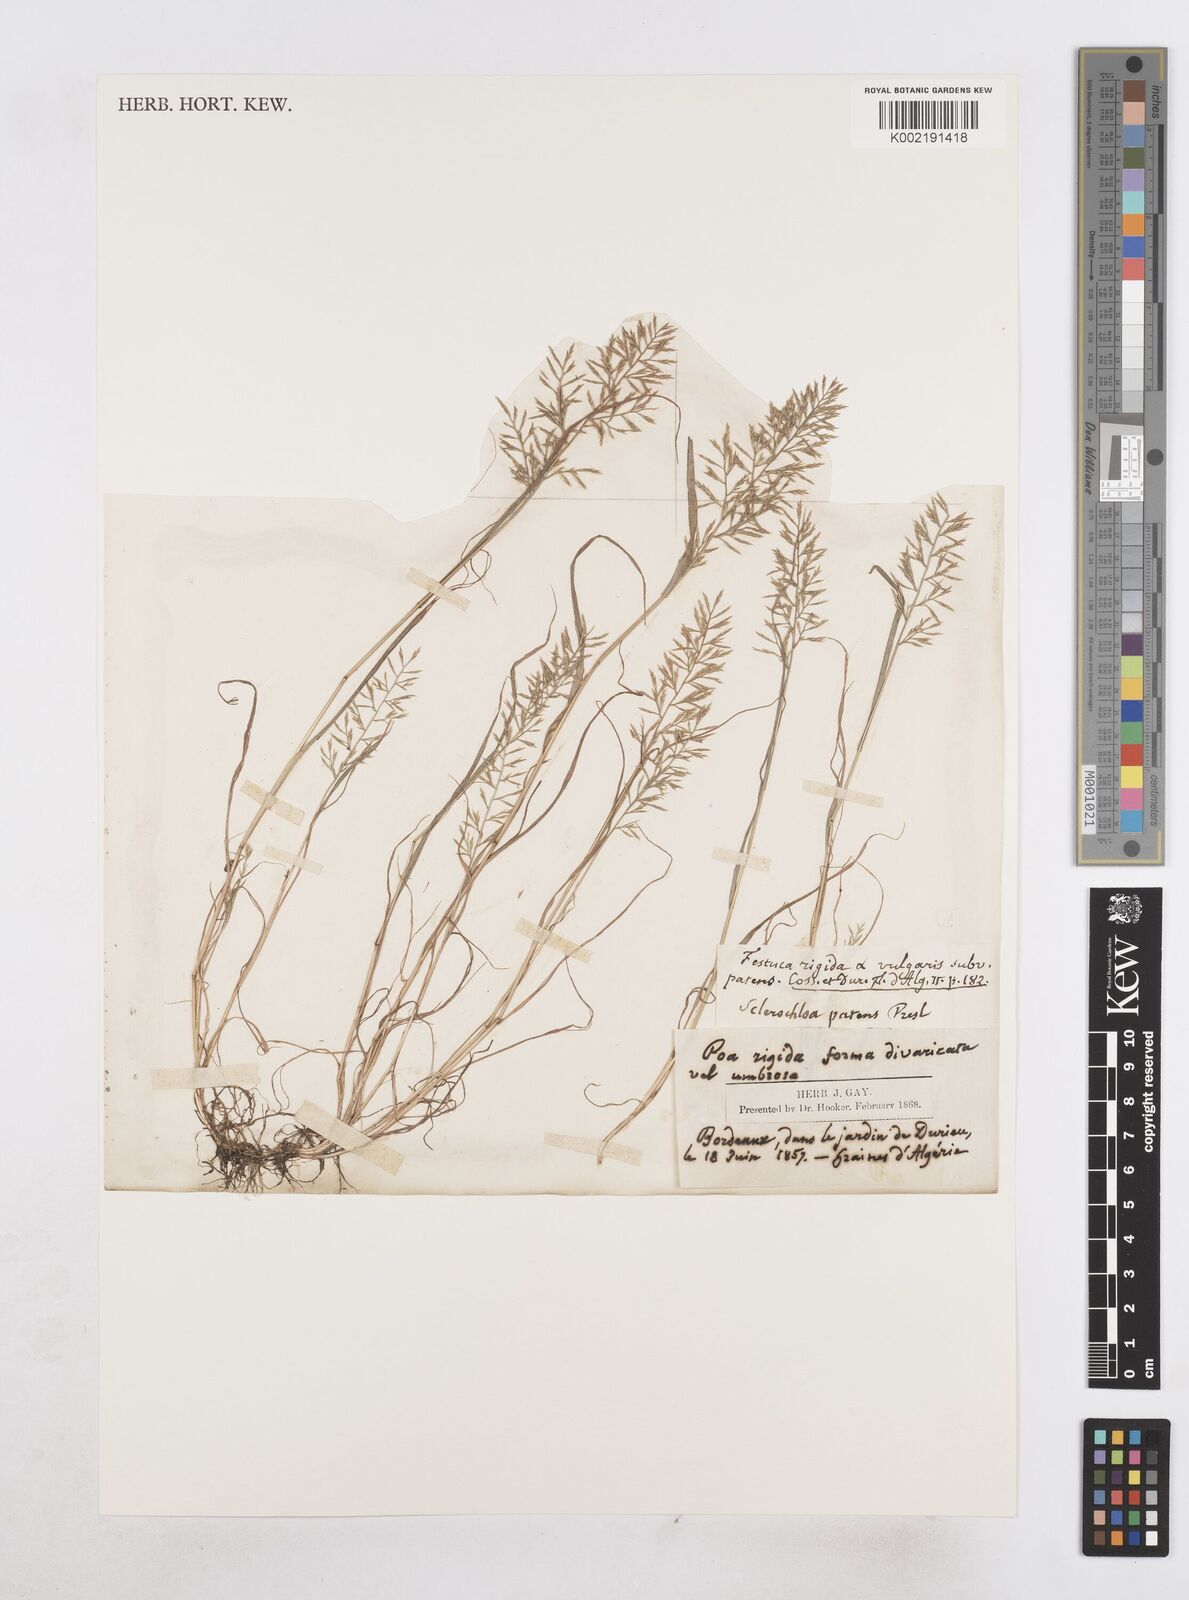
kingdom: Plantae
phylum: Tracheophyta
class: Liliopsida
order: Poales
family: Poaceae
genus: Catapodium
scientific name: Catapodium rigidum
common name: Fern-grass
